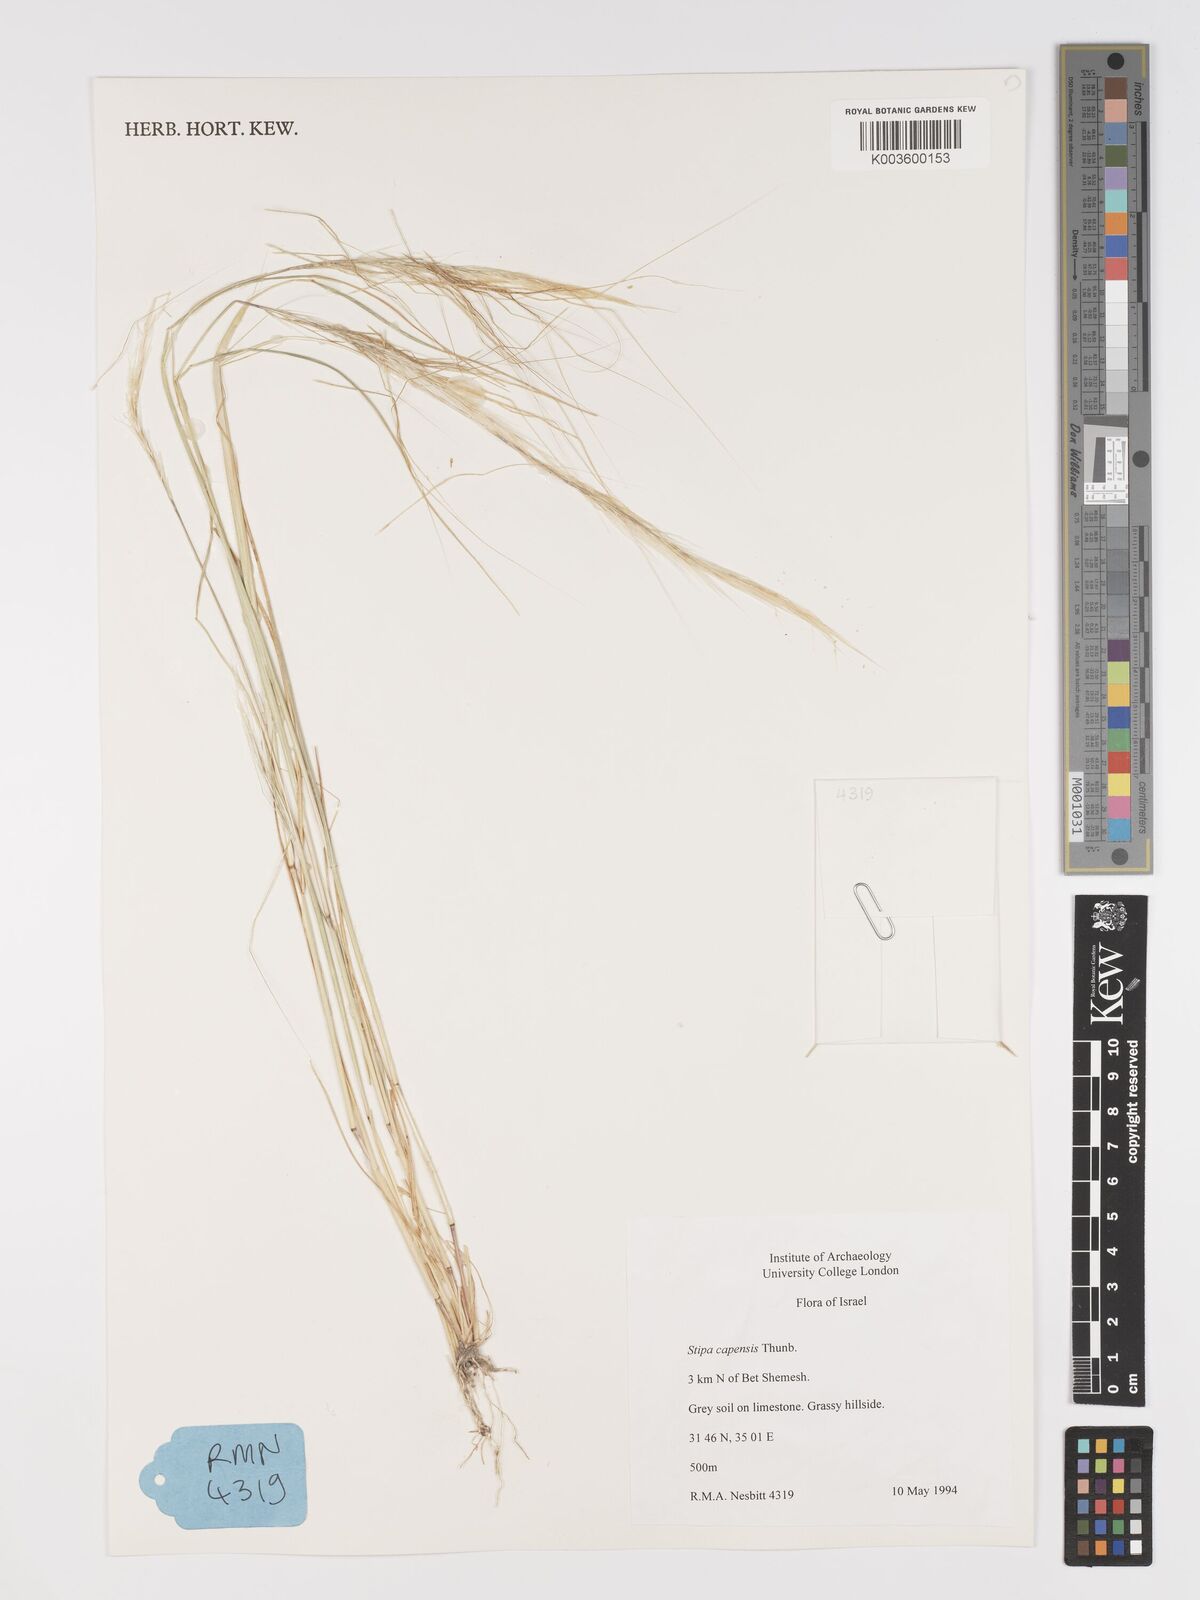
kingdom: Plantae
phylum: Tracheophyta
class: Liliopsida
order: Poales
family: Poaceae
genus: Stipellula
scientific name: Stipellula capensis
